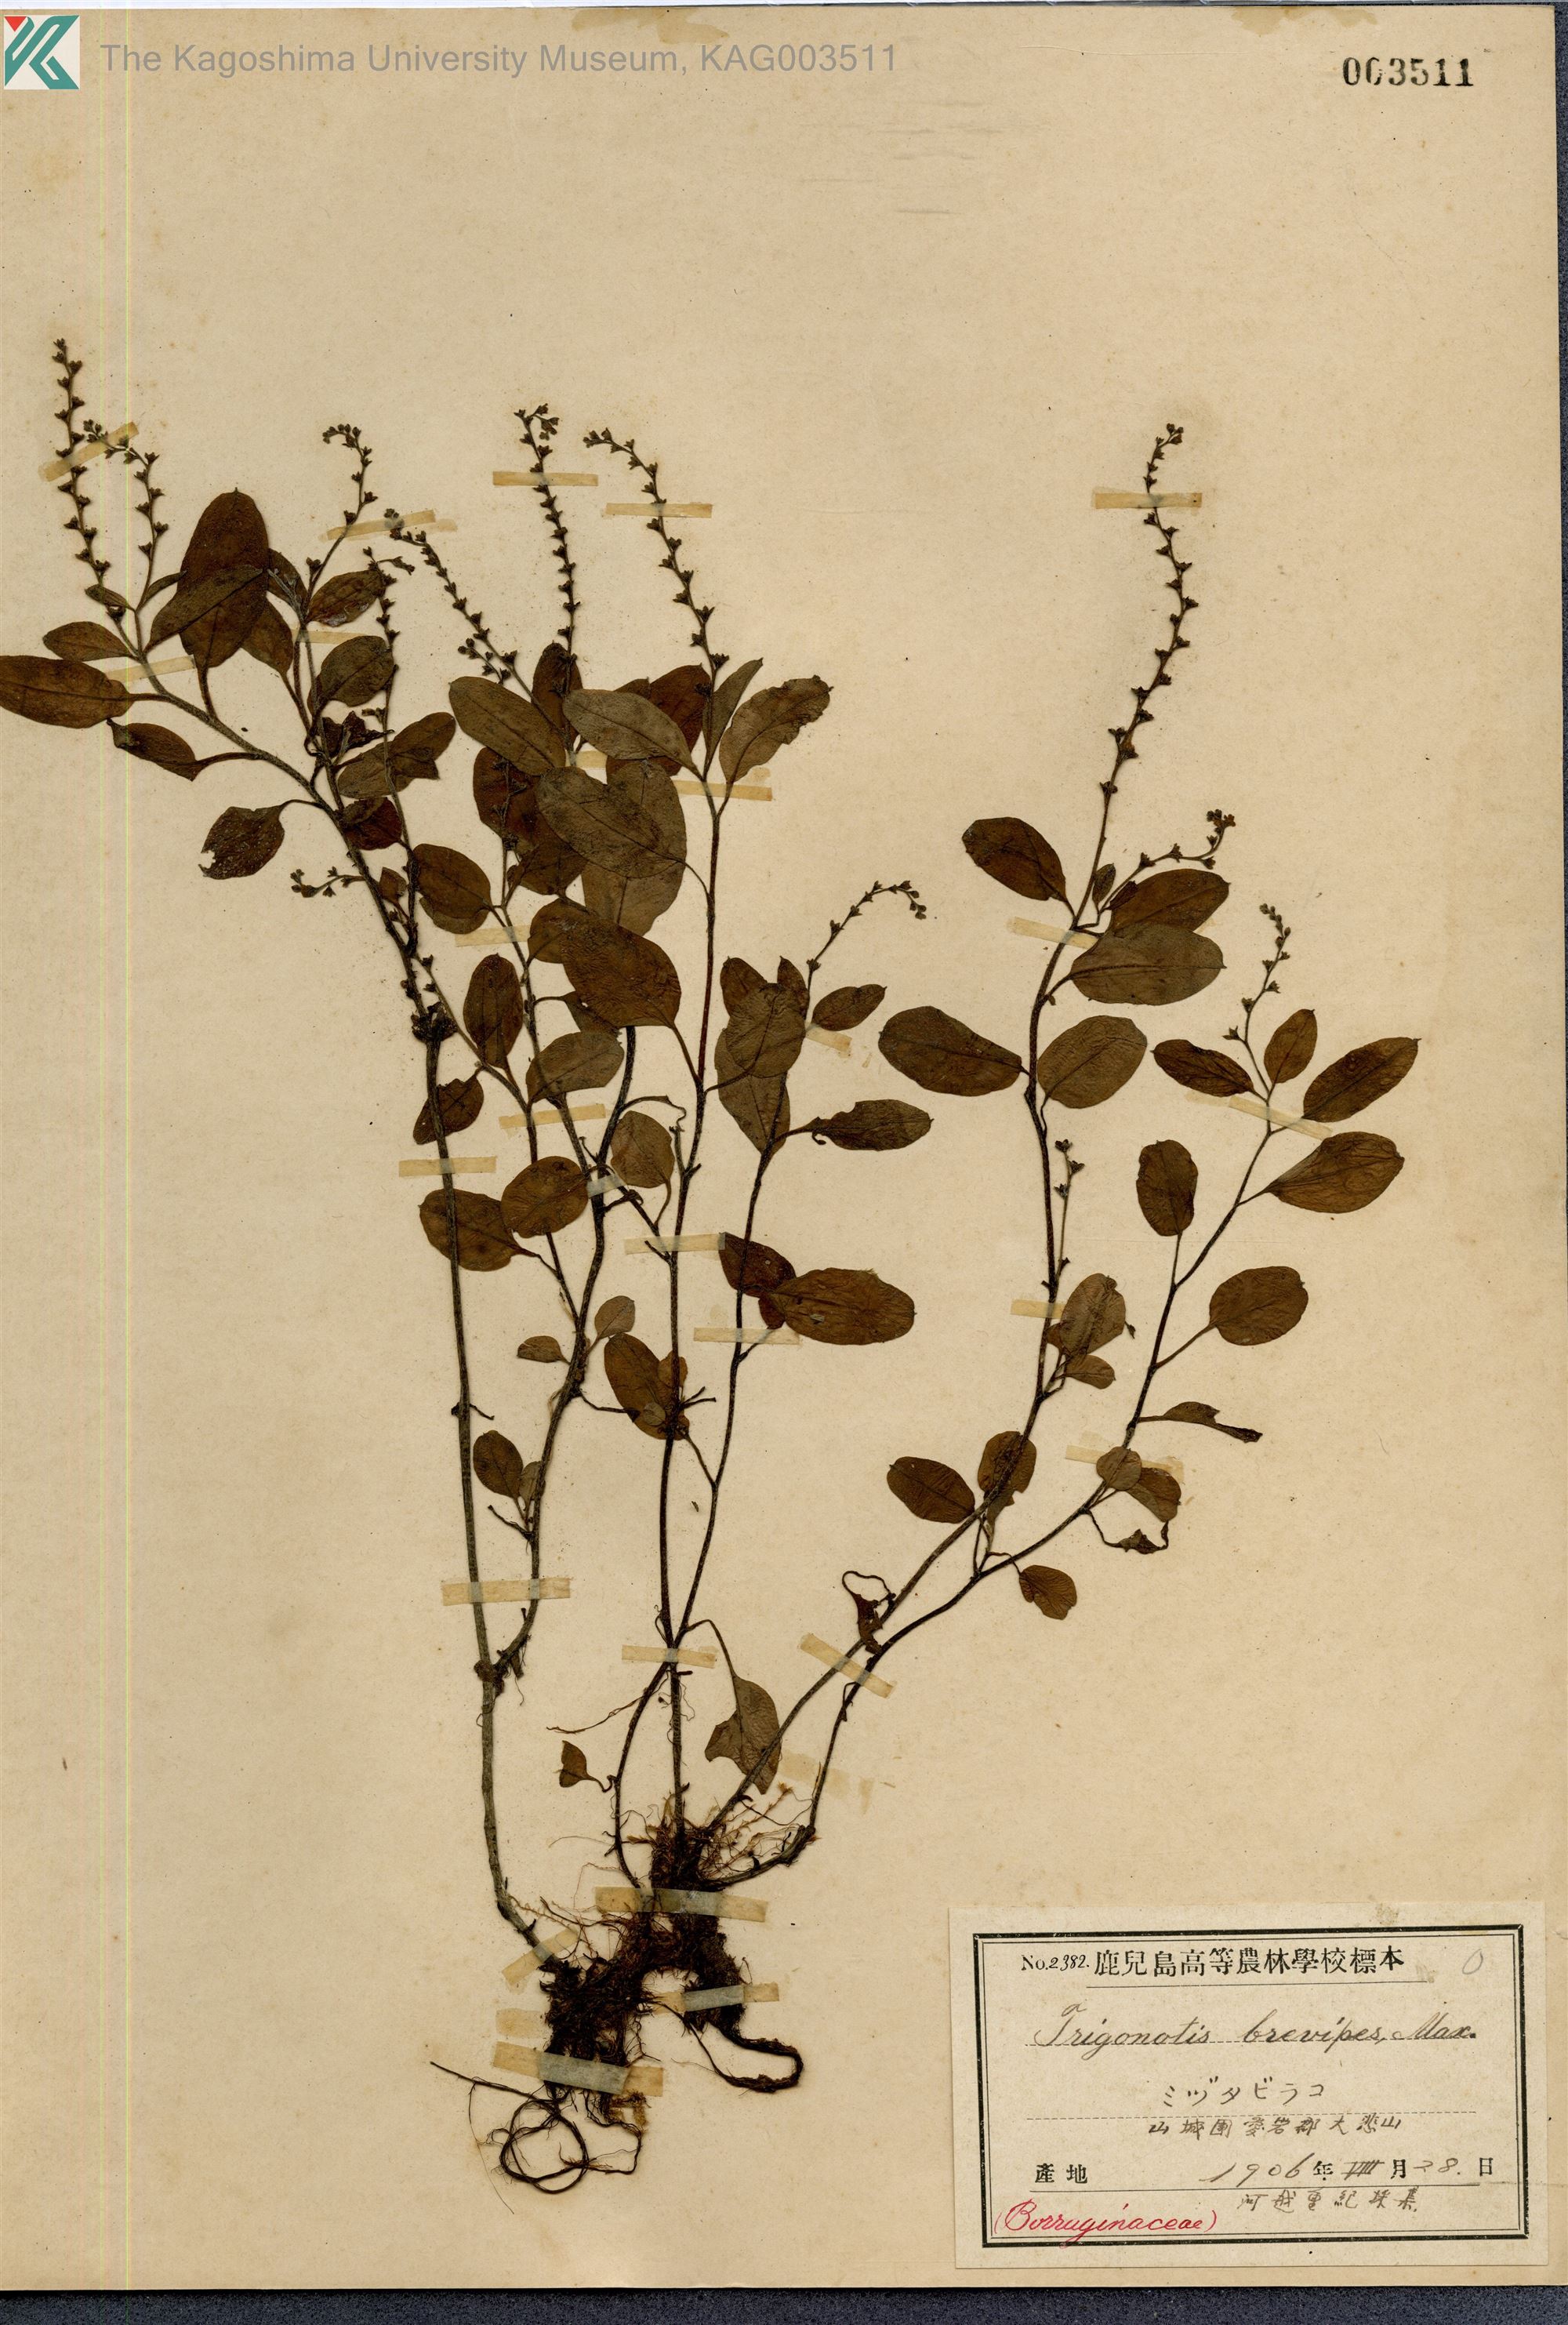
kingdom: Plantae
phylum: Tracheophyta
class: Magnoliopsida
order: Boraginales
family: Boraginaceae
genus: Trigonotis
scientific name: Trigonotis brevipes
